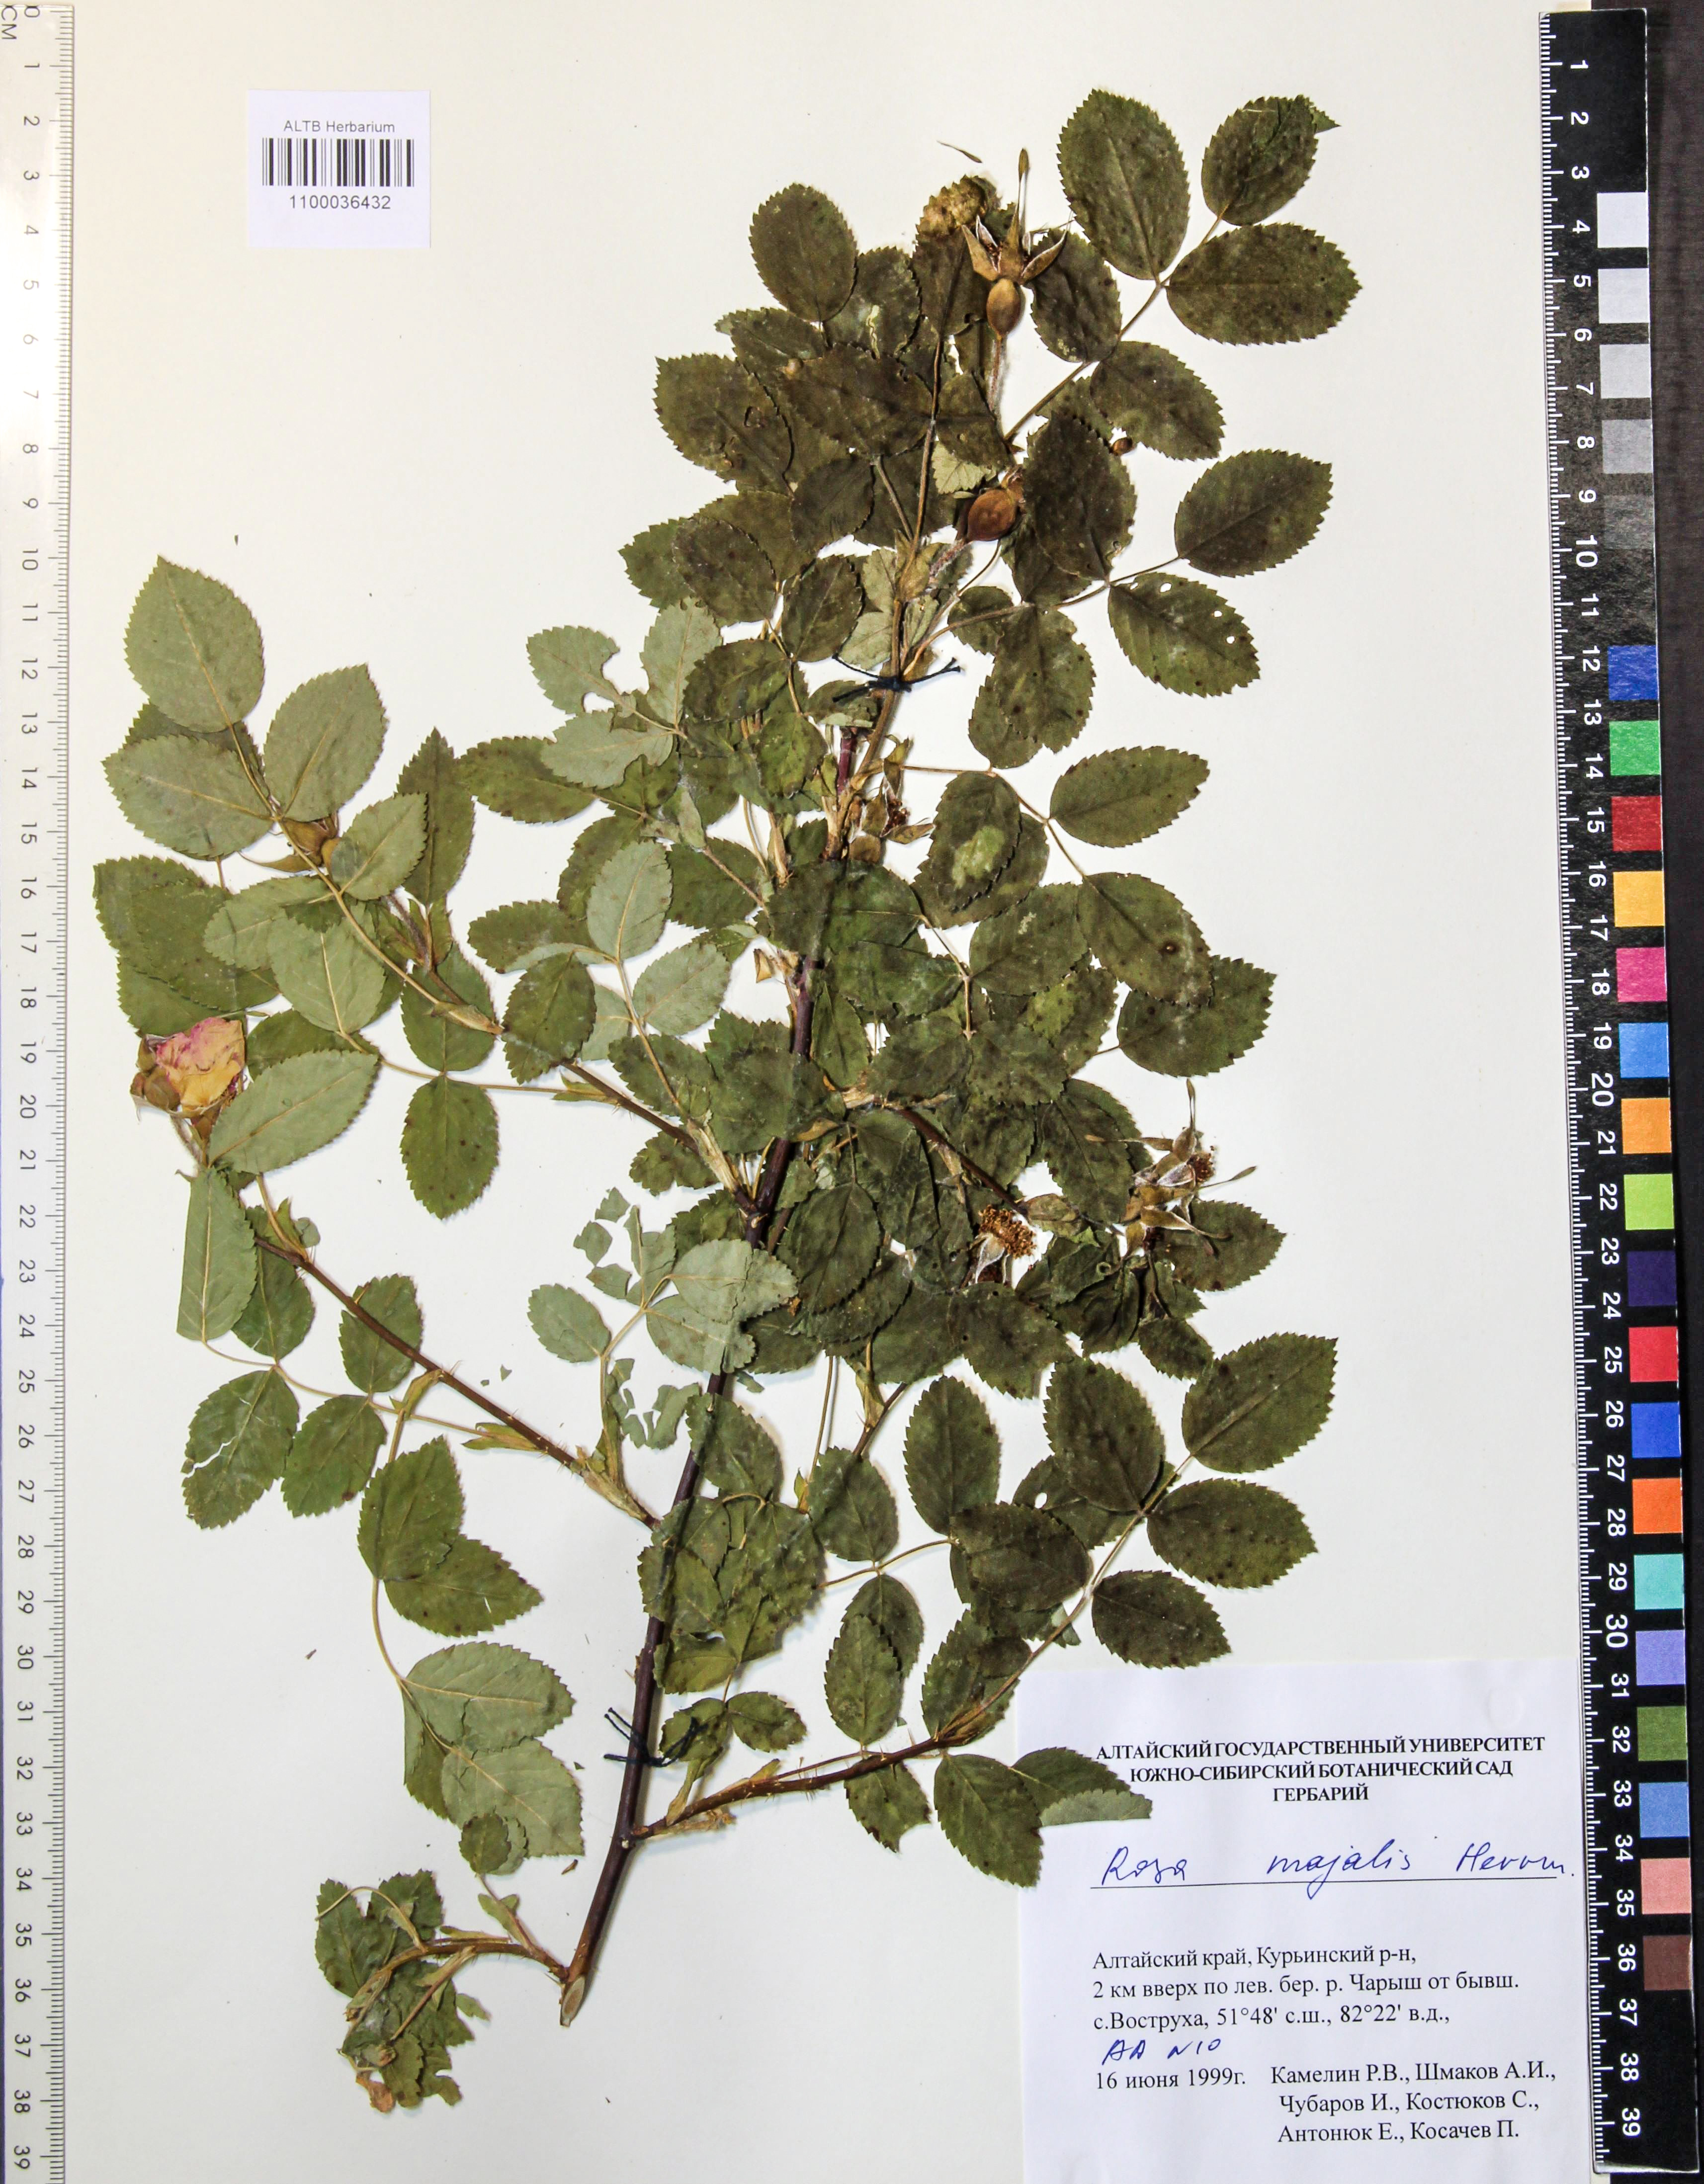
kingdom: Plantae
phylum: Tracheophyta
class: Magnoliopsida
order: Rosales
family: Rosaceae
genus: Rosa
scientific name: Rosa majalis
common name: Cinnamon rose
